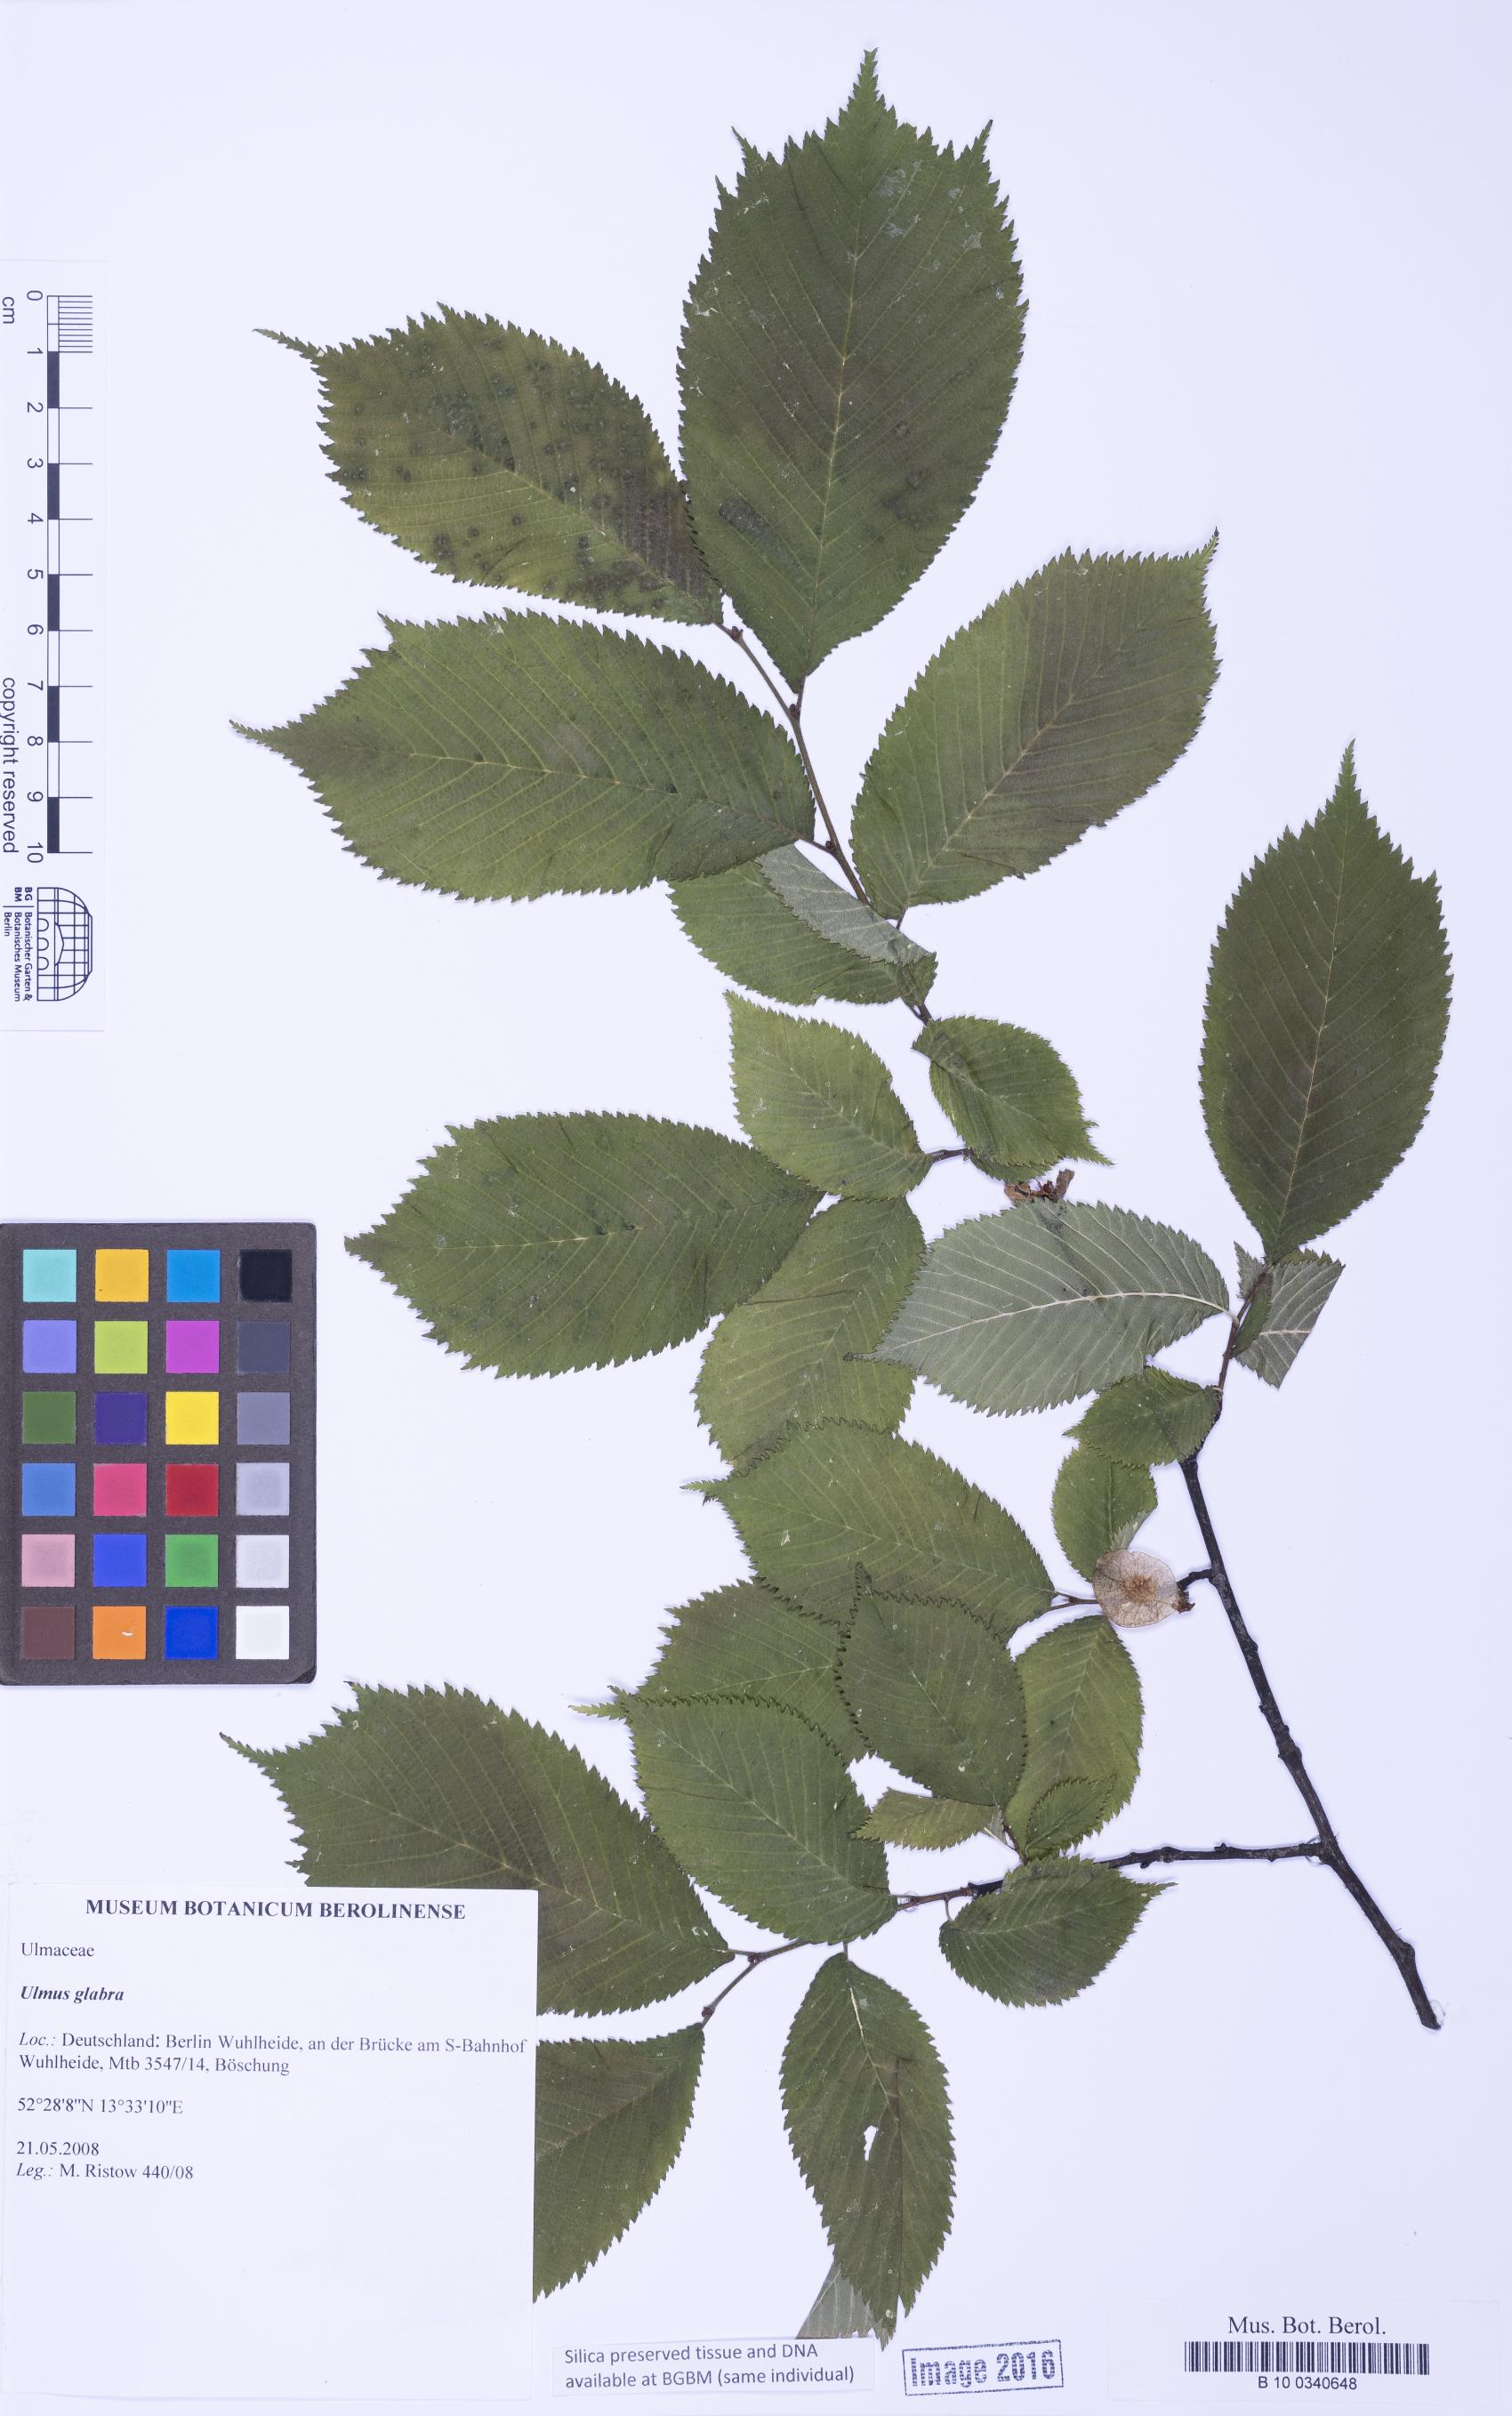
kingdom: Plantae
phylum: Tracheophyta
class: Magnoliopsida
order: Rosales
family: Ulmaceae
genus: Ulmus
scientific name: Ulmus glabra
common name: Wych elm
